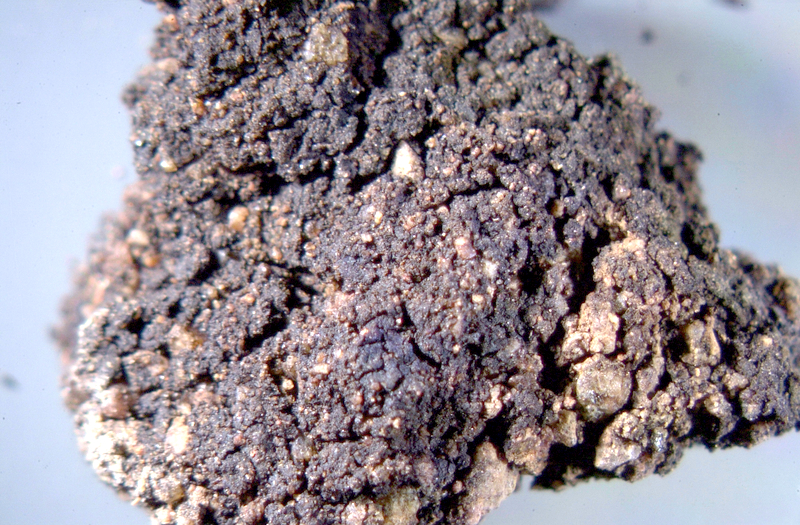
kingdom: Bacteria
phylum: Cyanobacteria
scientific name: Cyanobacteria
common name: Cyanobacteria
